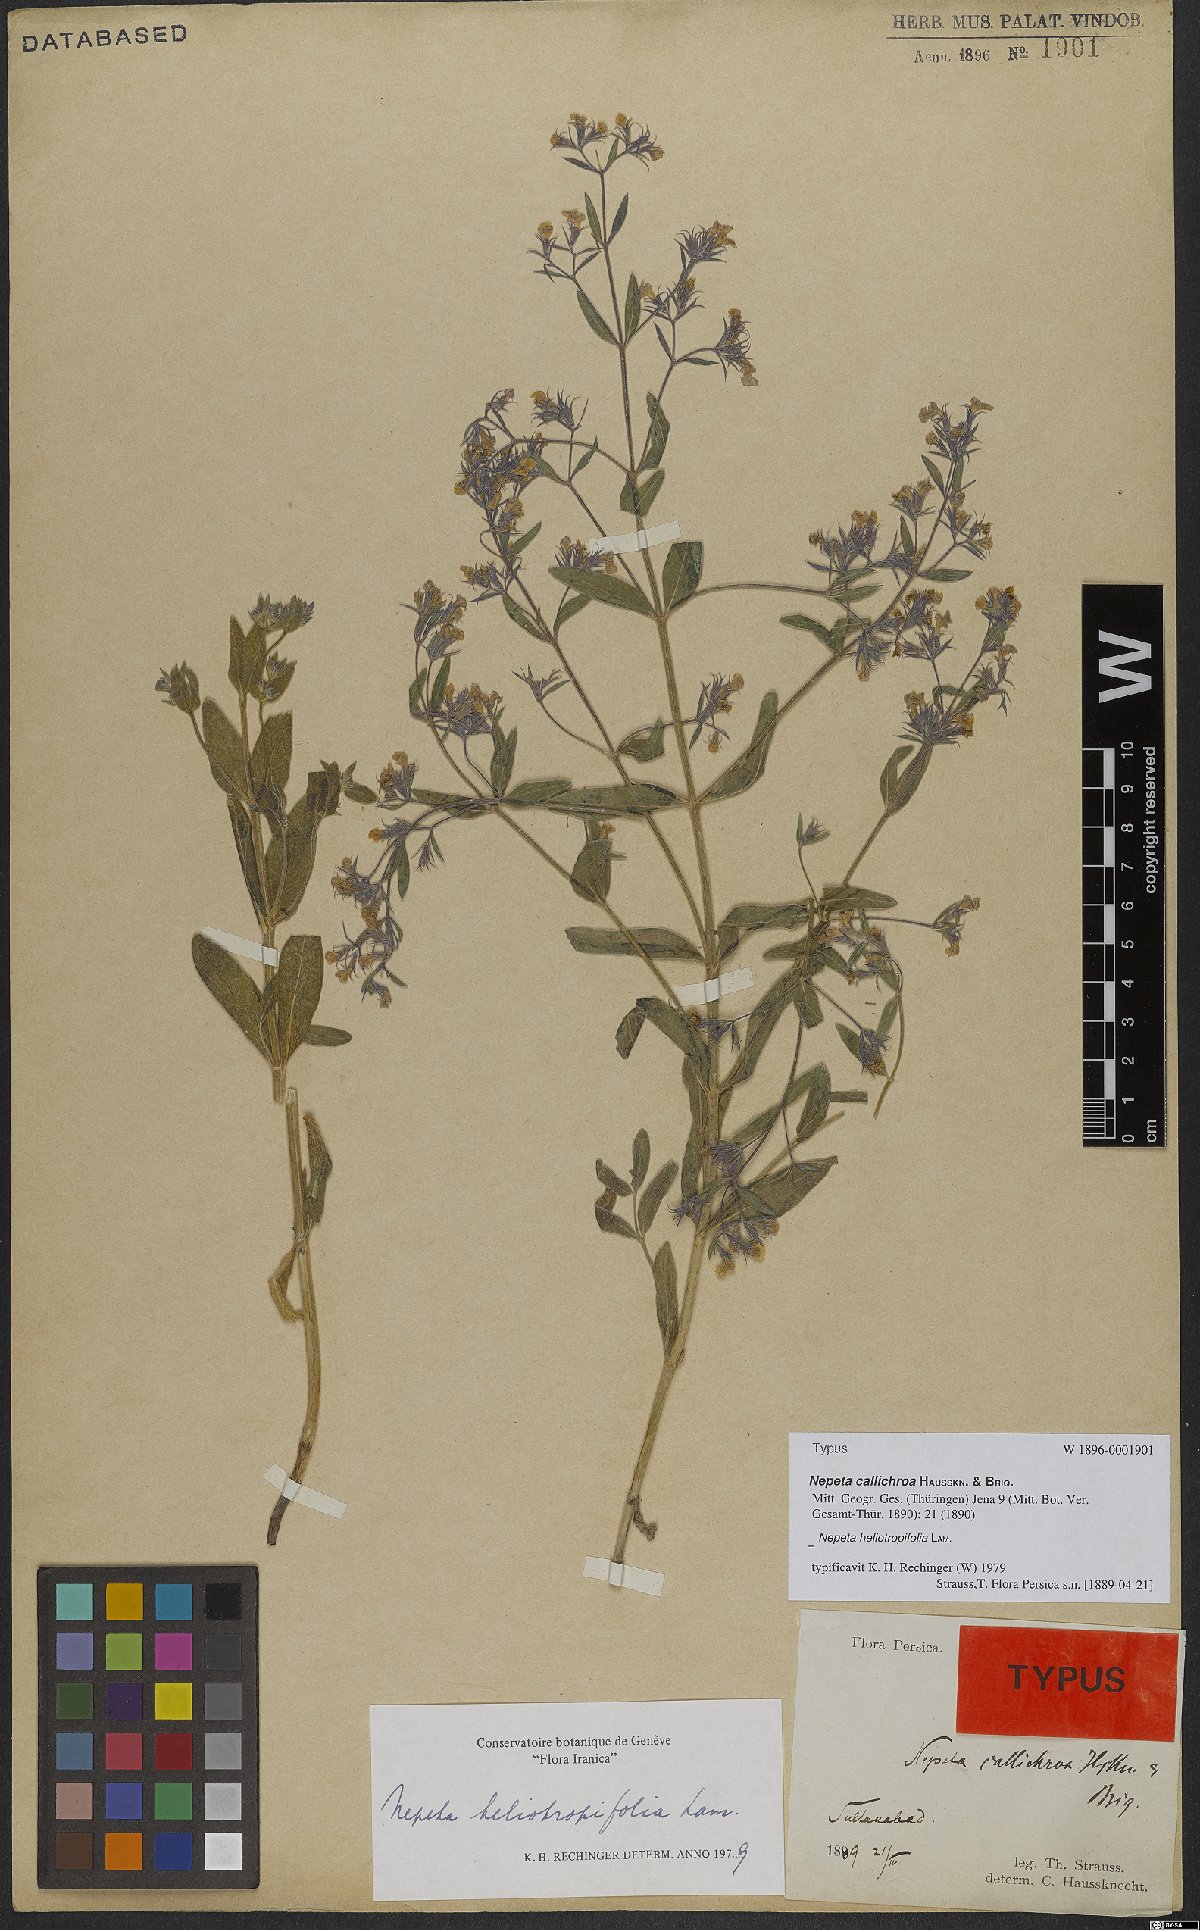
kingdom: Plantae
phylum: Tracheophyta
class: Magnoliopsida
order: Lamiales
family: Lamiaceae
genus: Nepeta
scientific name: Nepeta heliotropifolia
